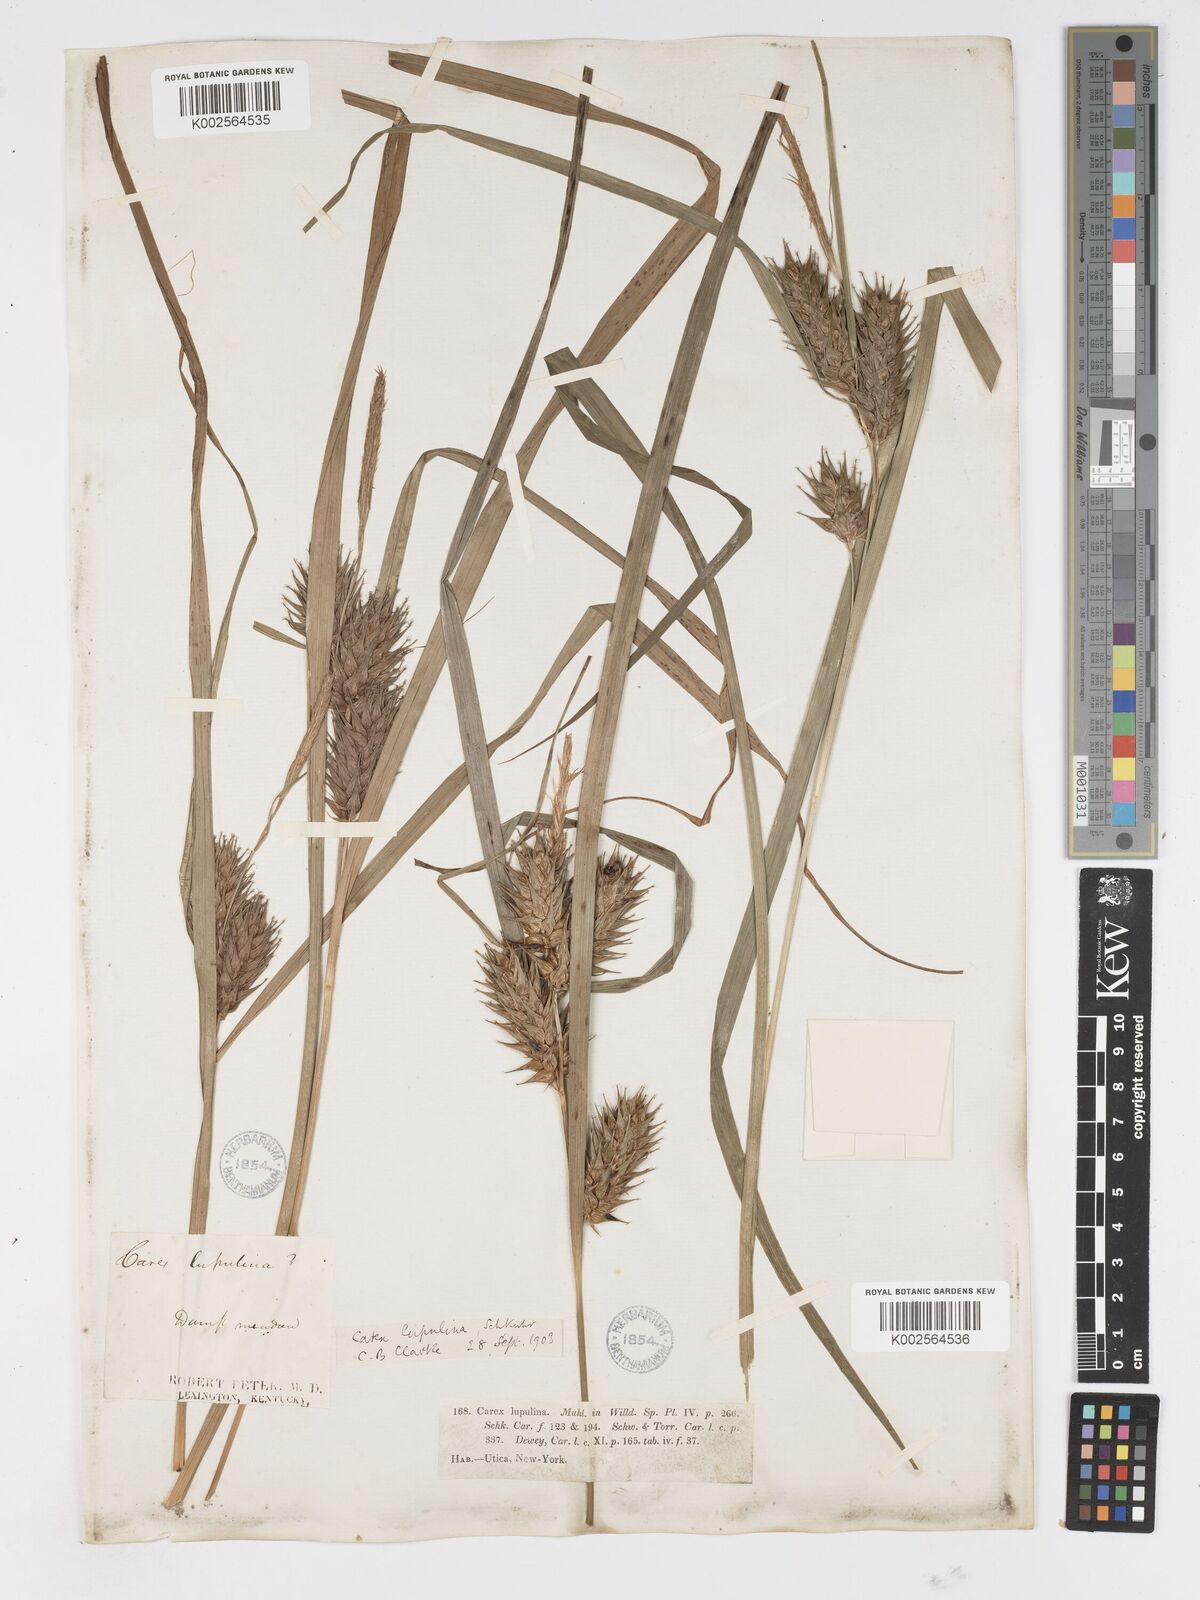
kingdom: Plantae
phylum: Tracheophyta
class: Liliopsida
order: Poales
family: Cyperaceae
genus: Carex
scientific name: Carex lupulina
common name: Hop sedge
